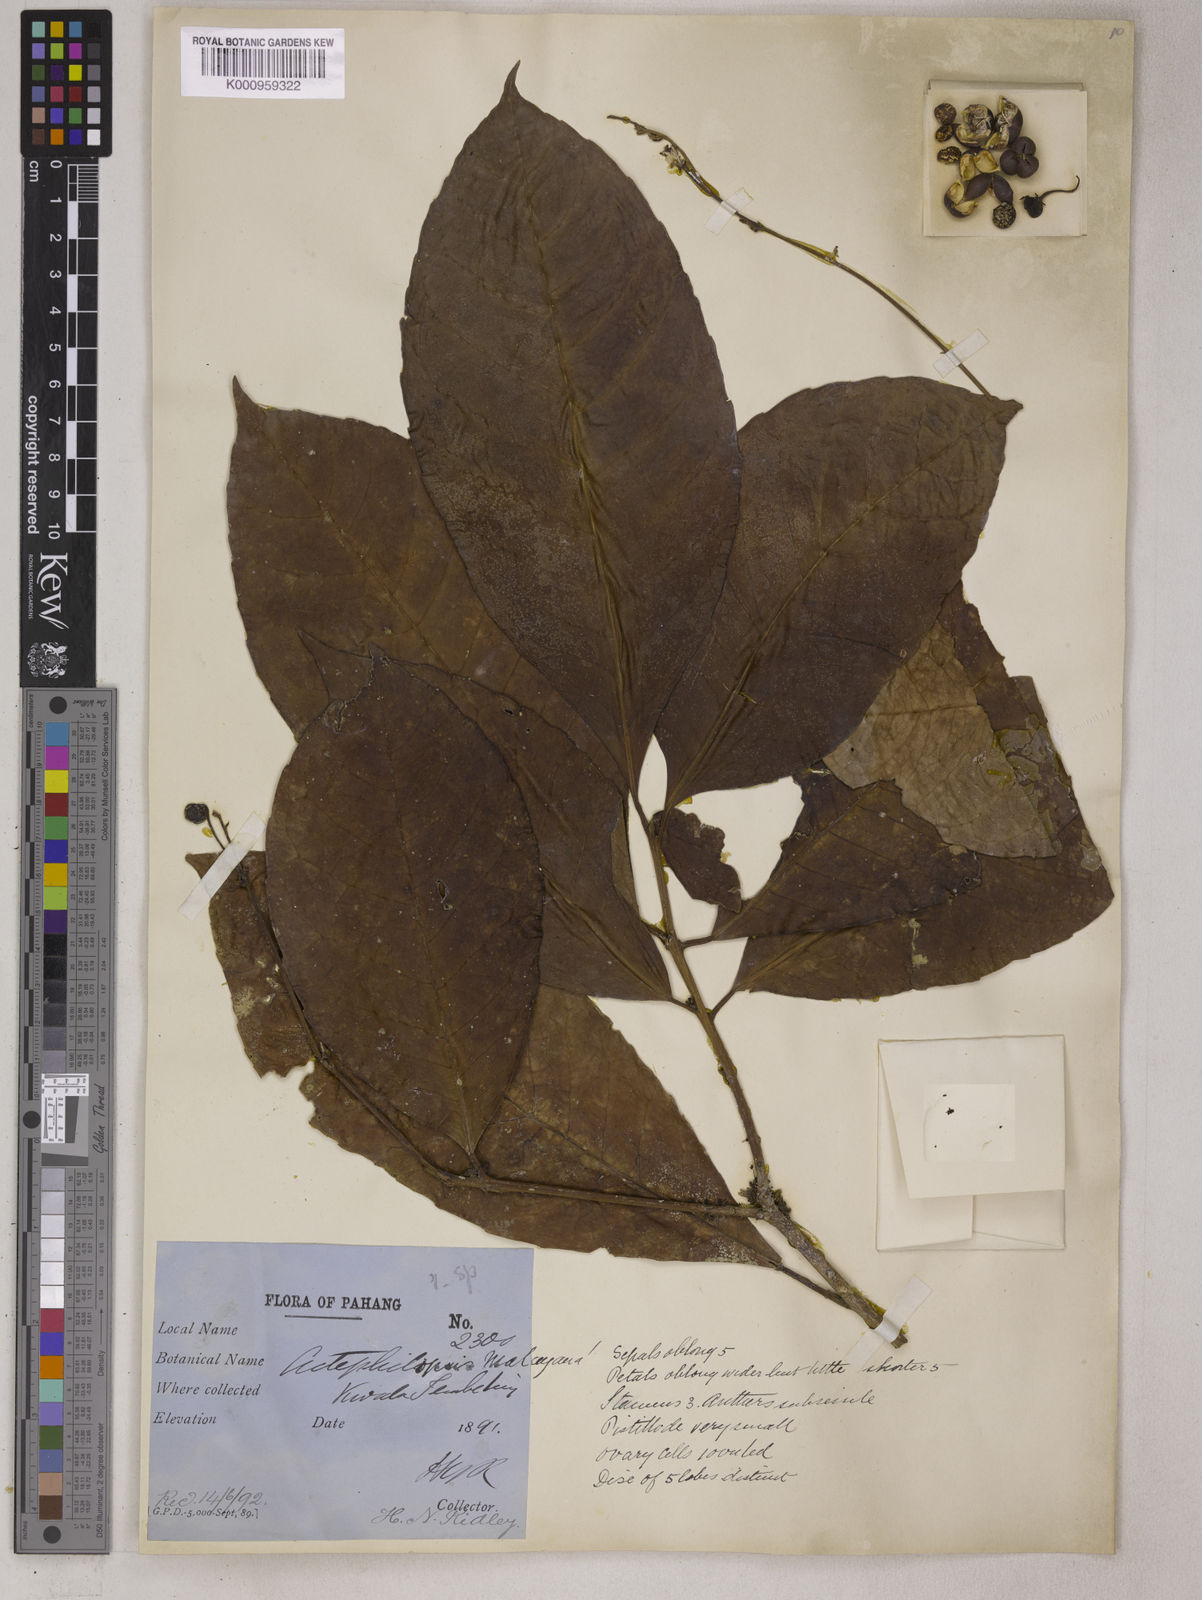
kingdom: Plantae
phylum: Tracheophyta
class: Magnoliopsida
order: Malpighiales
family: Euphorbiaceae
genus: Trigonostemon
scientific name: Trigonostemon aurantiacus
